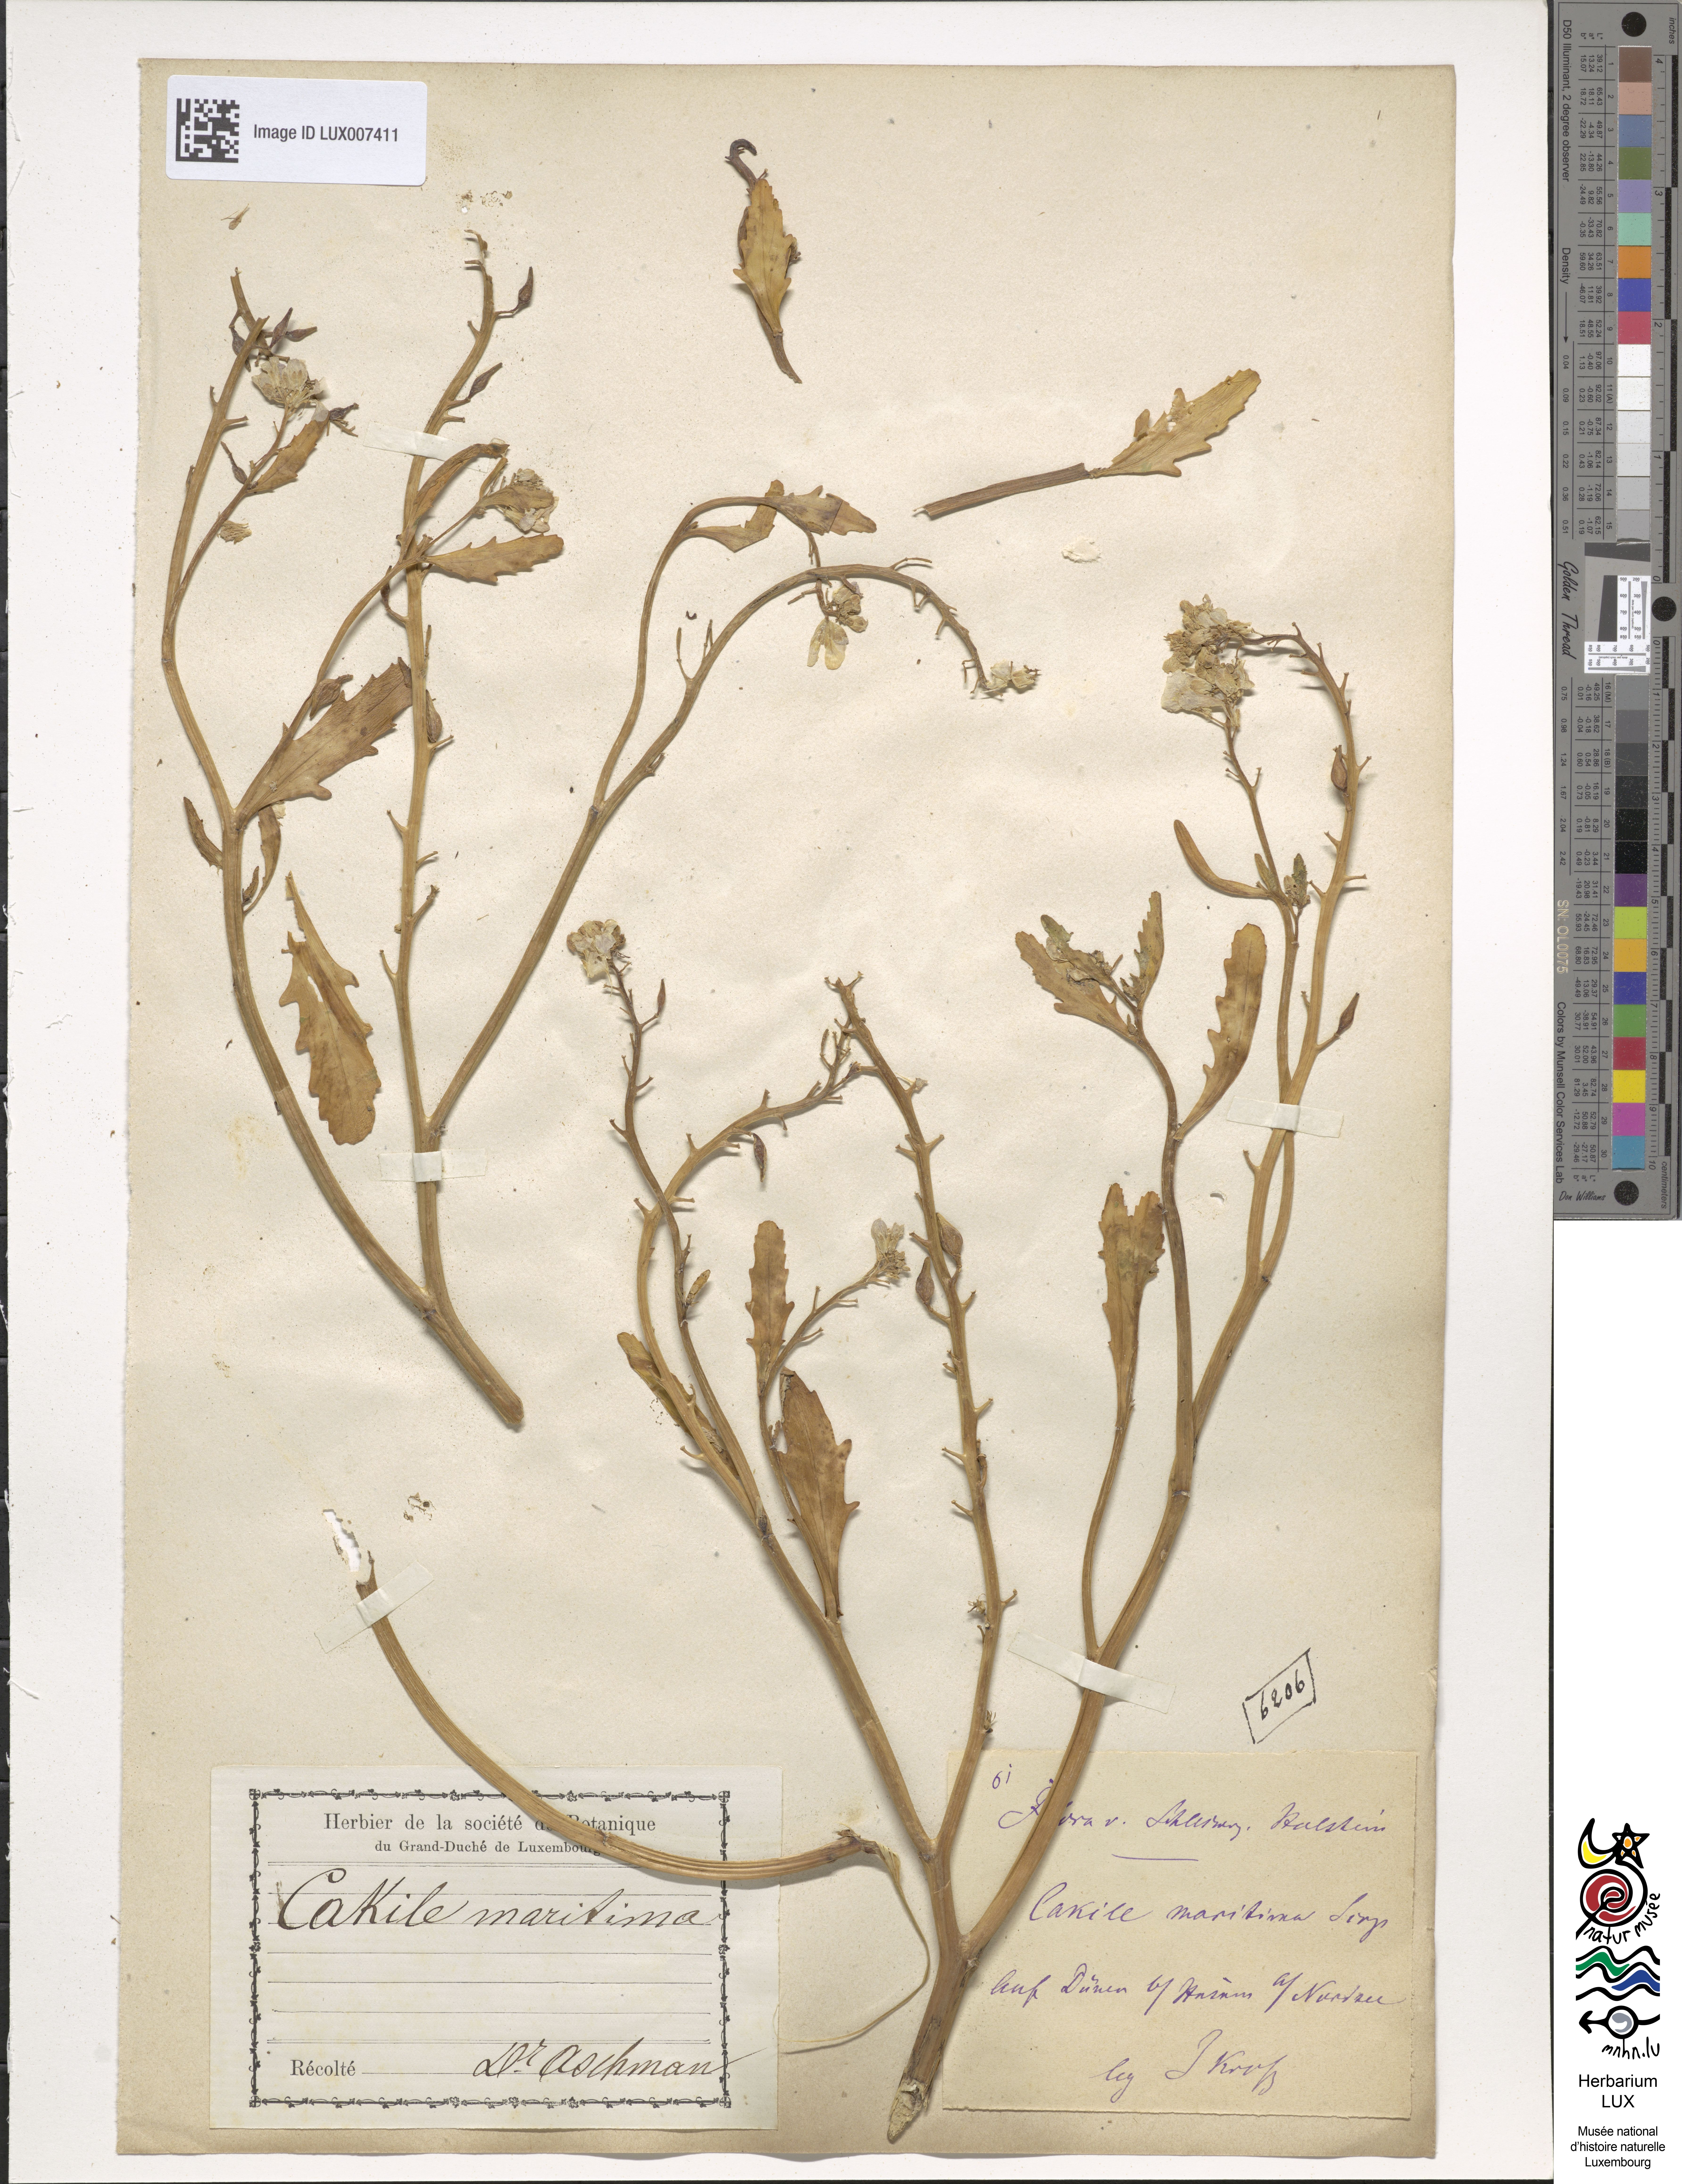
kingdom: Plantae
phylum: Tracheophyta
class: Magnoliopsida
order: Brassicales
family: Brassicaceae
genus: Cakile
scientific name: Cakile maritima
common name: Sea rocket
